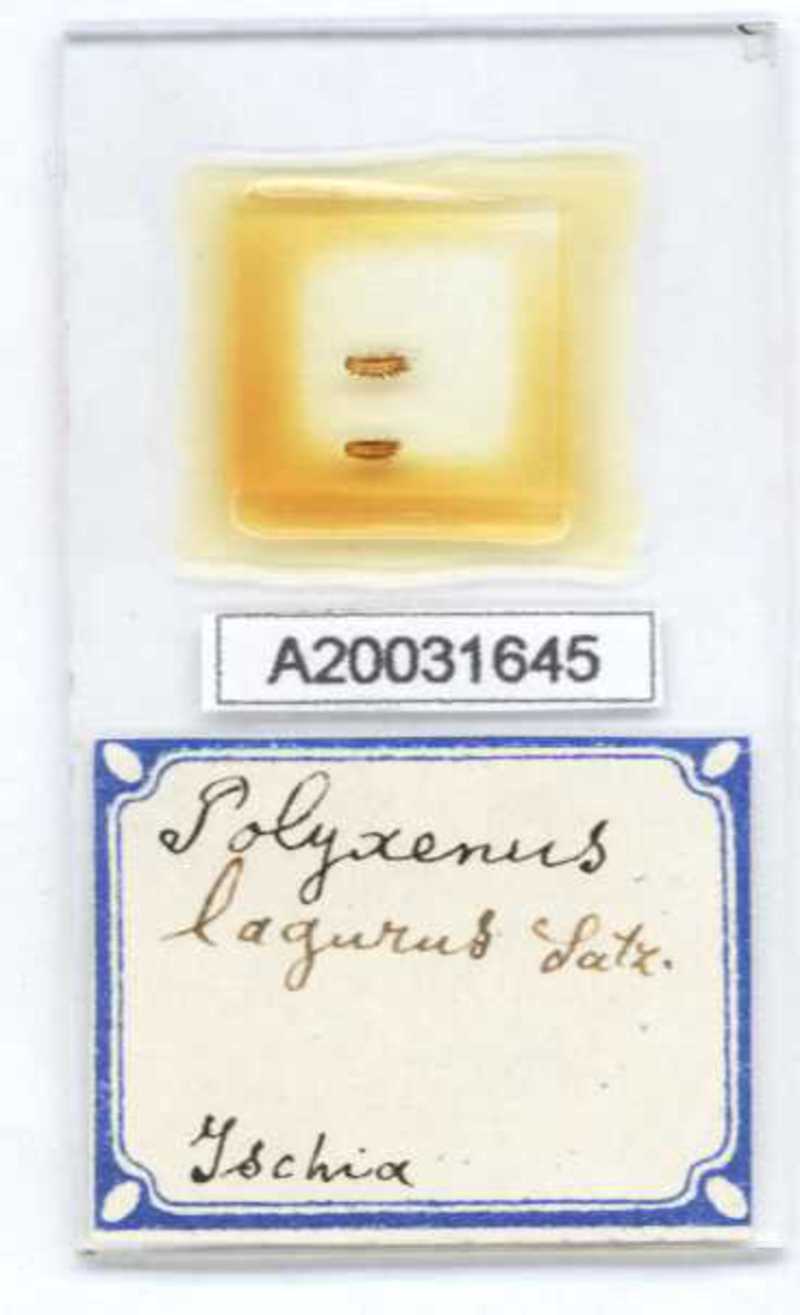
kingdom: Animalia
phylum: Arthropoda
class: Diplopoda
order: Polyxenida
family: Polyxenidae
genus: Polyxenus
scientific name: Polyxenus lagurus
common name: Bristly millipede
